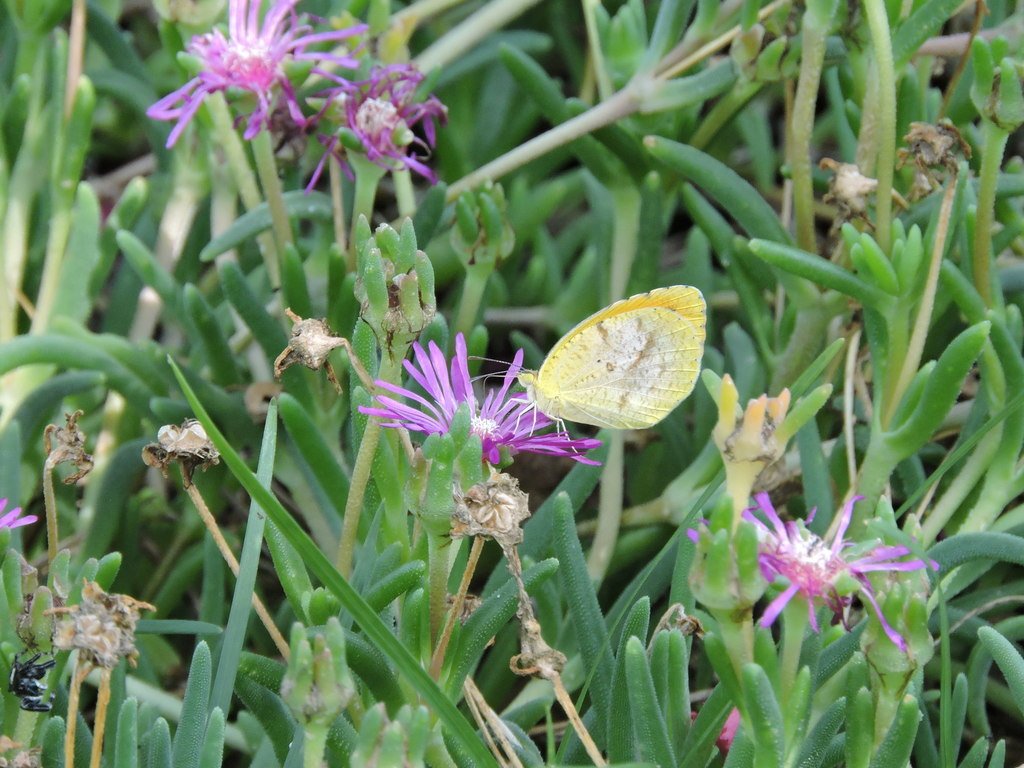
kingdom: Animalia
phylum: Arthropoda
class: Insecta
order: Lepidoptera
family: Pieridae
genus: Abaeis
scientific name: Abaeis nicippe
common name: Sleepy Orange
